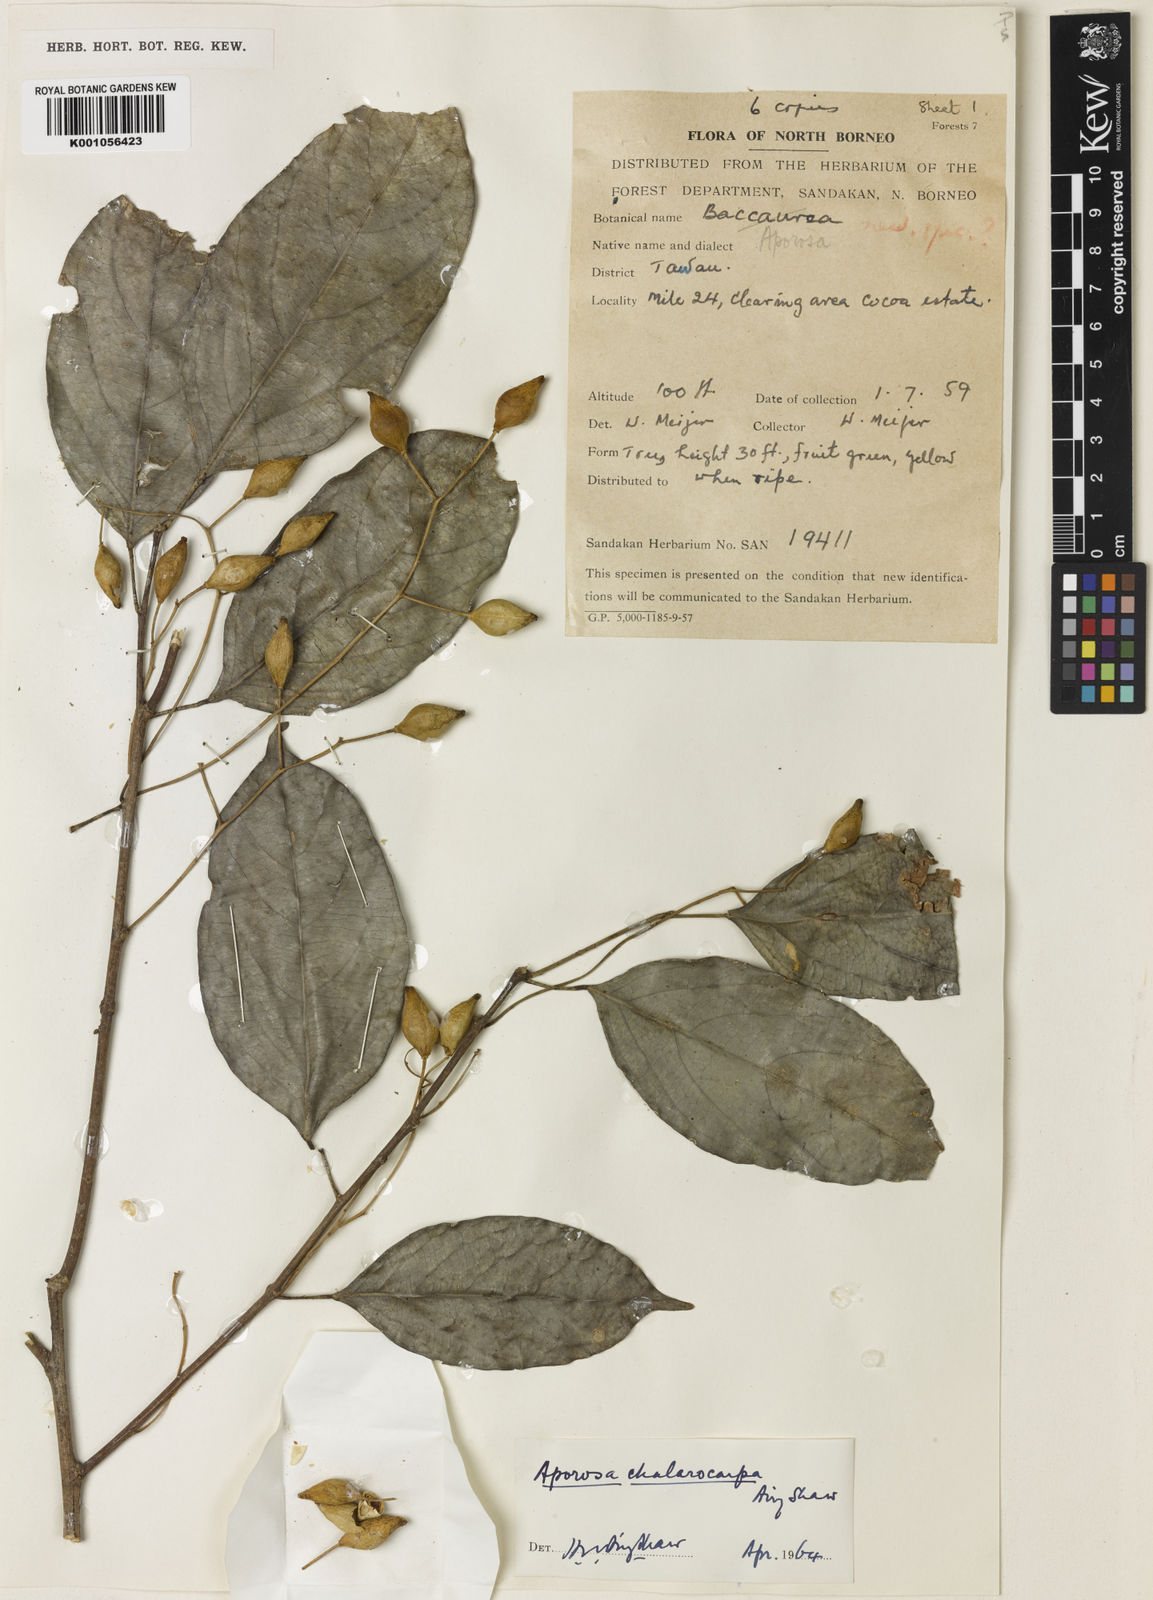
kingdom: Plantae
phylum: Tracheophyta
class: Magnoliopsida
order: Malpighiales
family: Phyllanthaceae
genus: Aporosa
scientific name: Aporosa symplocoides
